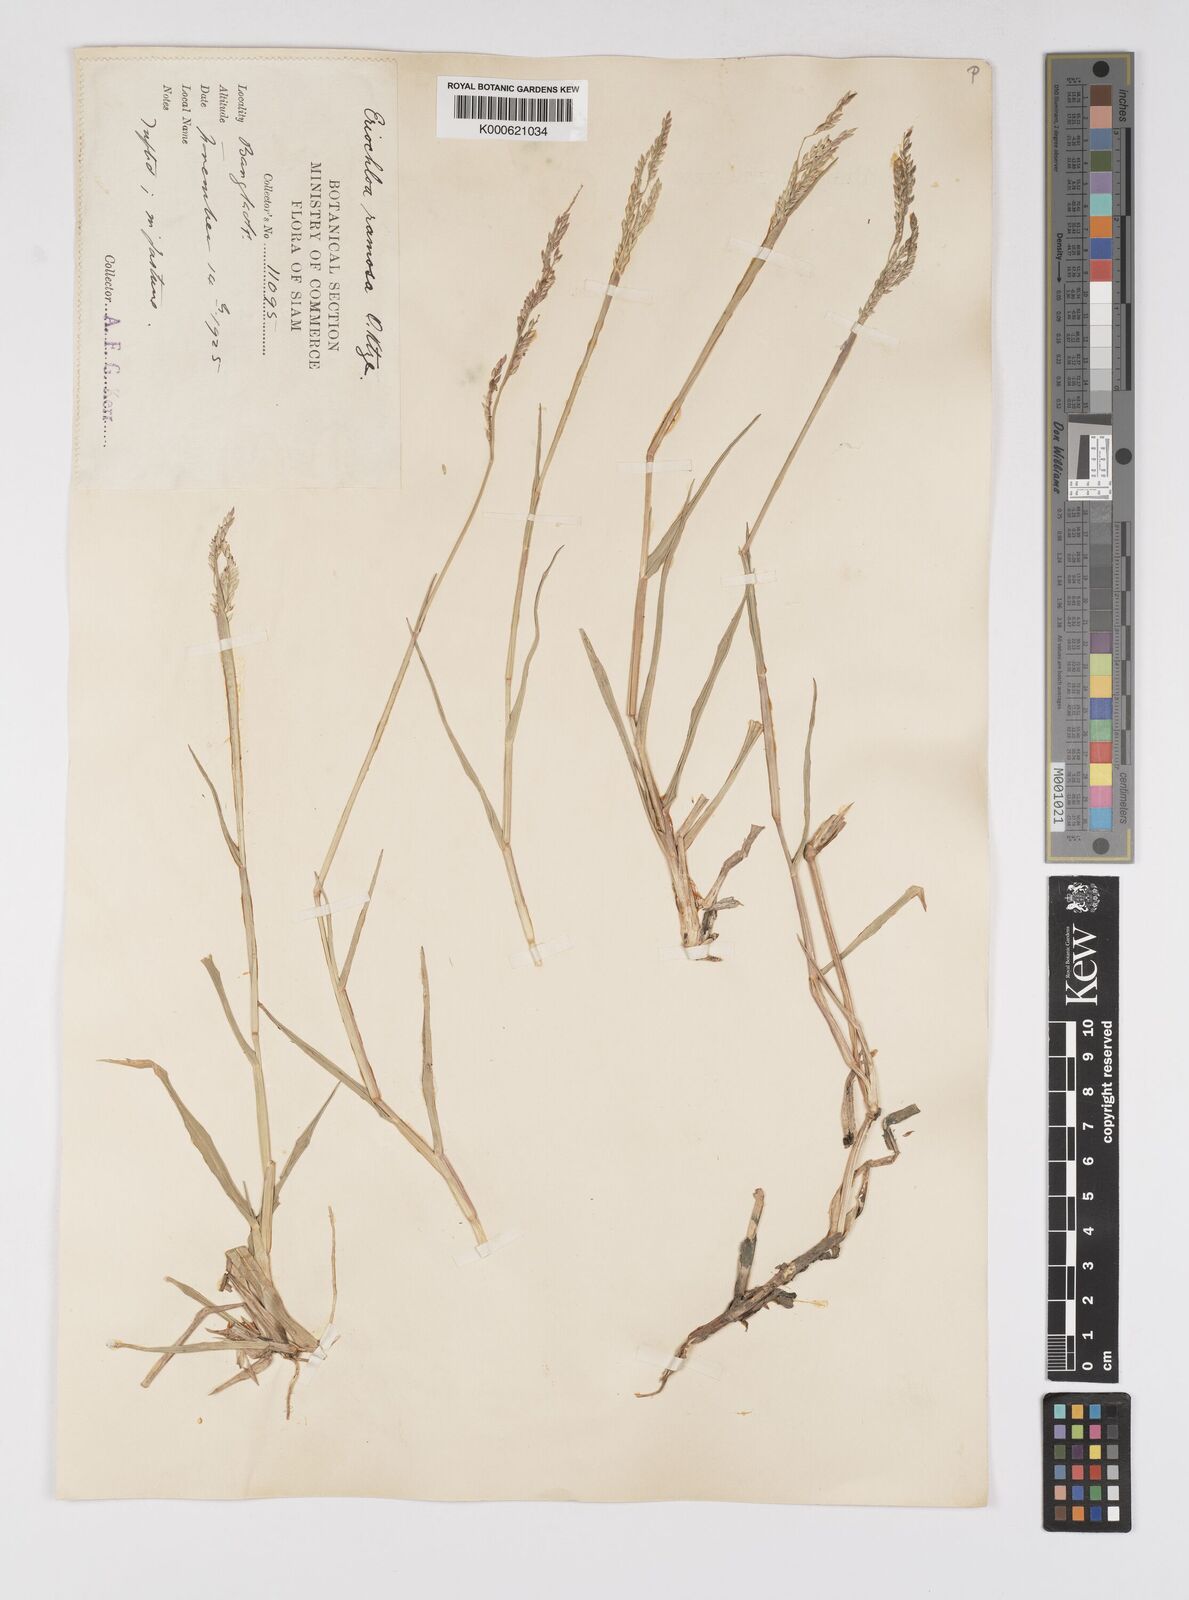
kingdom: Plantae
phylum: Tracheophyta
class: Liliopsida
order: Poales
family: Poaceae
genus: Eriochloa
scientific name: Eriochloa procera
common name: Spring grass
